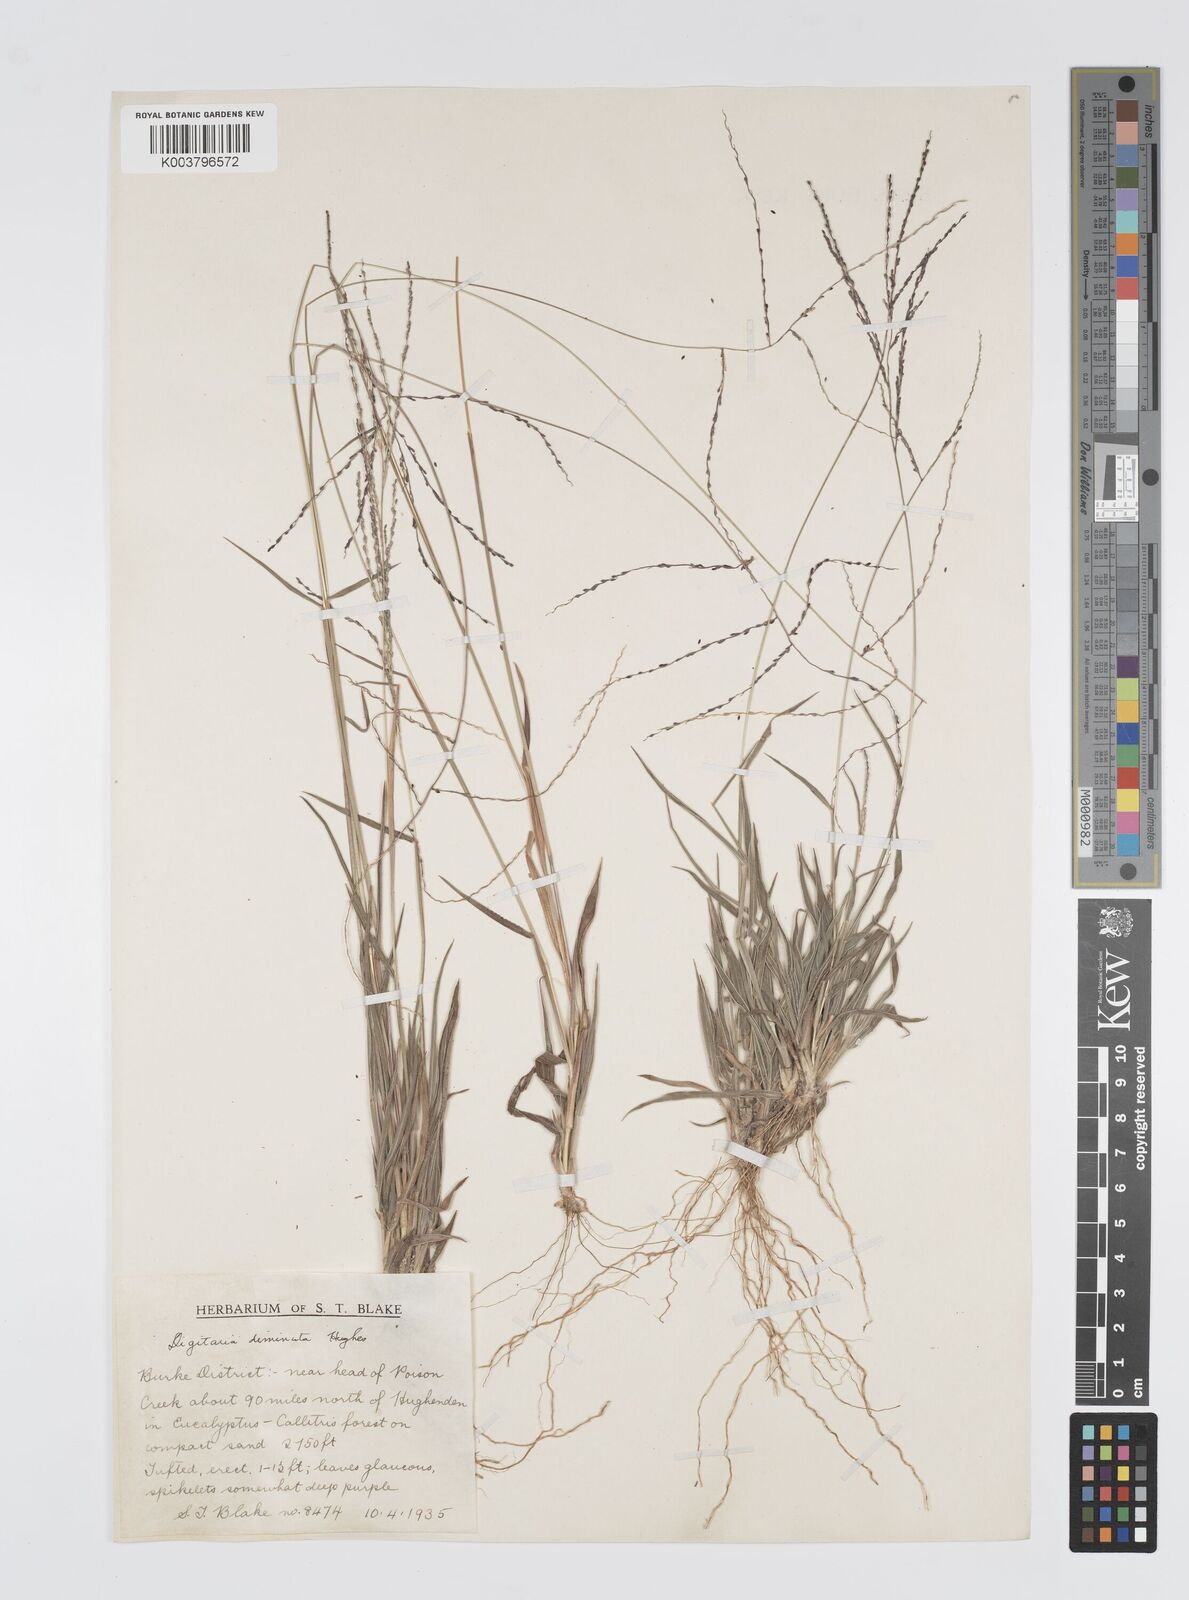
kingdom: Plantae
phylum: Tracheophyta
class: Liliopsida
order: Poales
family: Poaceae
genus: Digitaria
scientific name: Digitaria breviglumis
